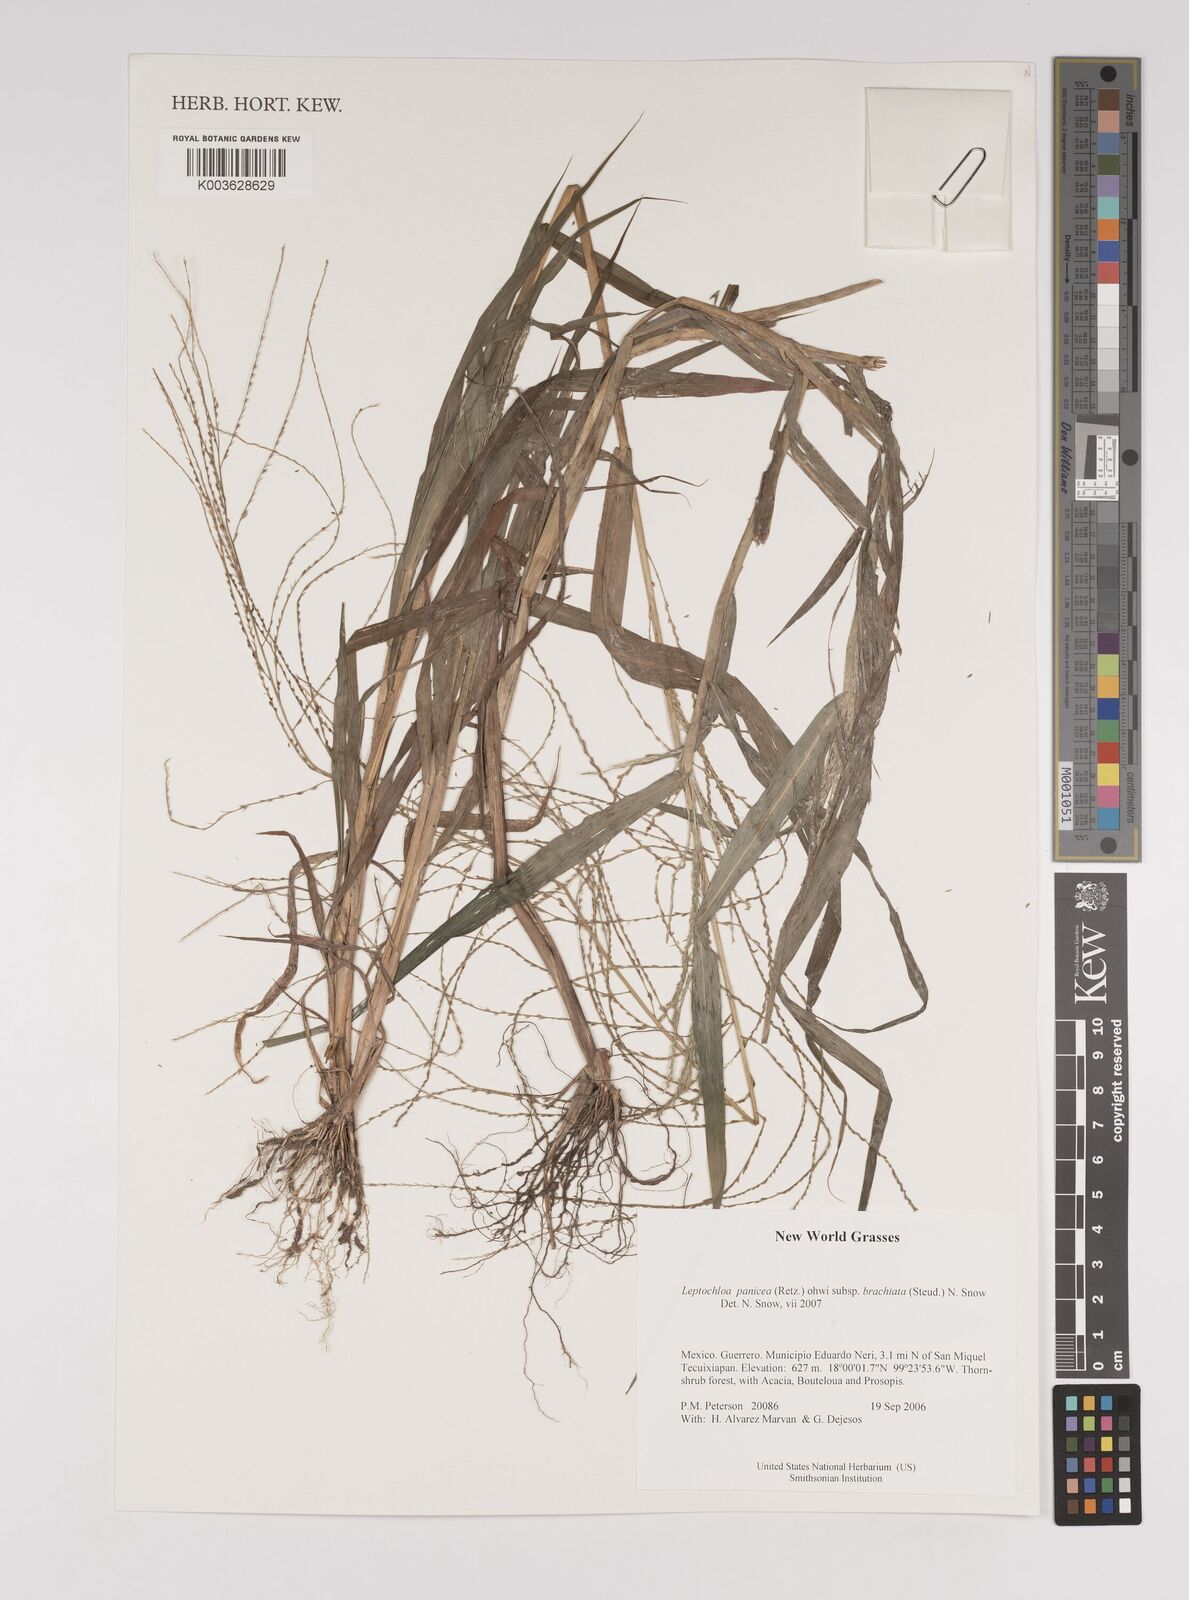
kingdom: Plantae
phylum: Tracheophyta
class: Liliopsida
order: Poales
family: Poaceae
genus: Leptochloa
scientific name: Leptochloa panicea
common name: Mucronate sprangletop
